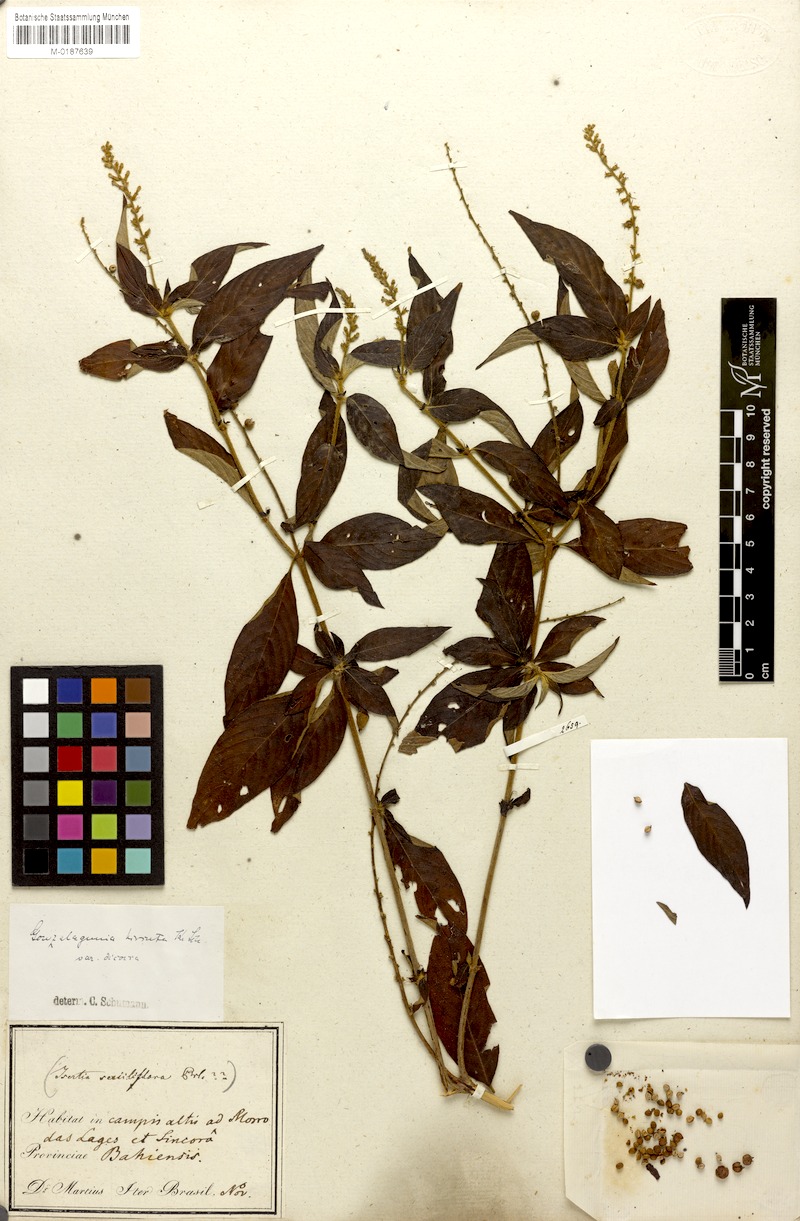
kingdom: Plantae
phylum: Tracheophyta
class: Magnoliopsida
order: Gentianales
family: Rubiaceae
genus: Gonzalagunia
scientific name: Gonzalagunia dicocca
